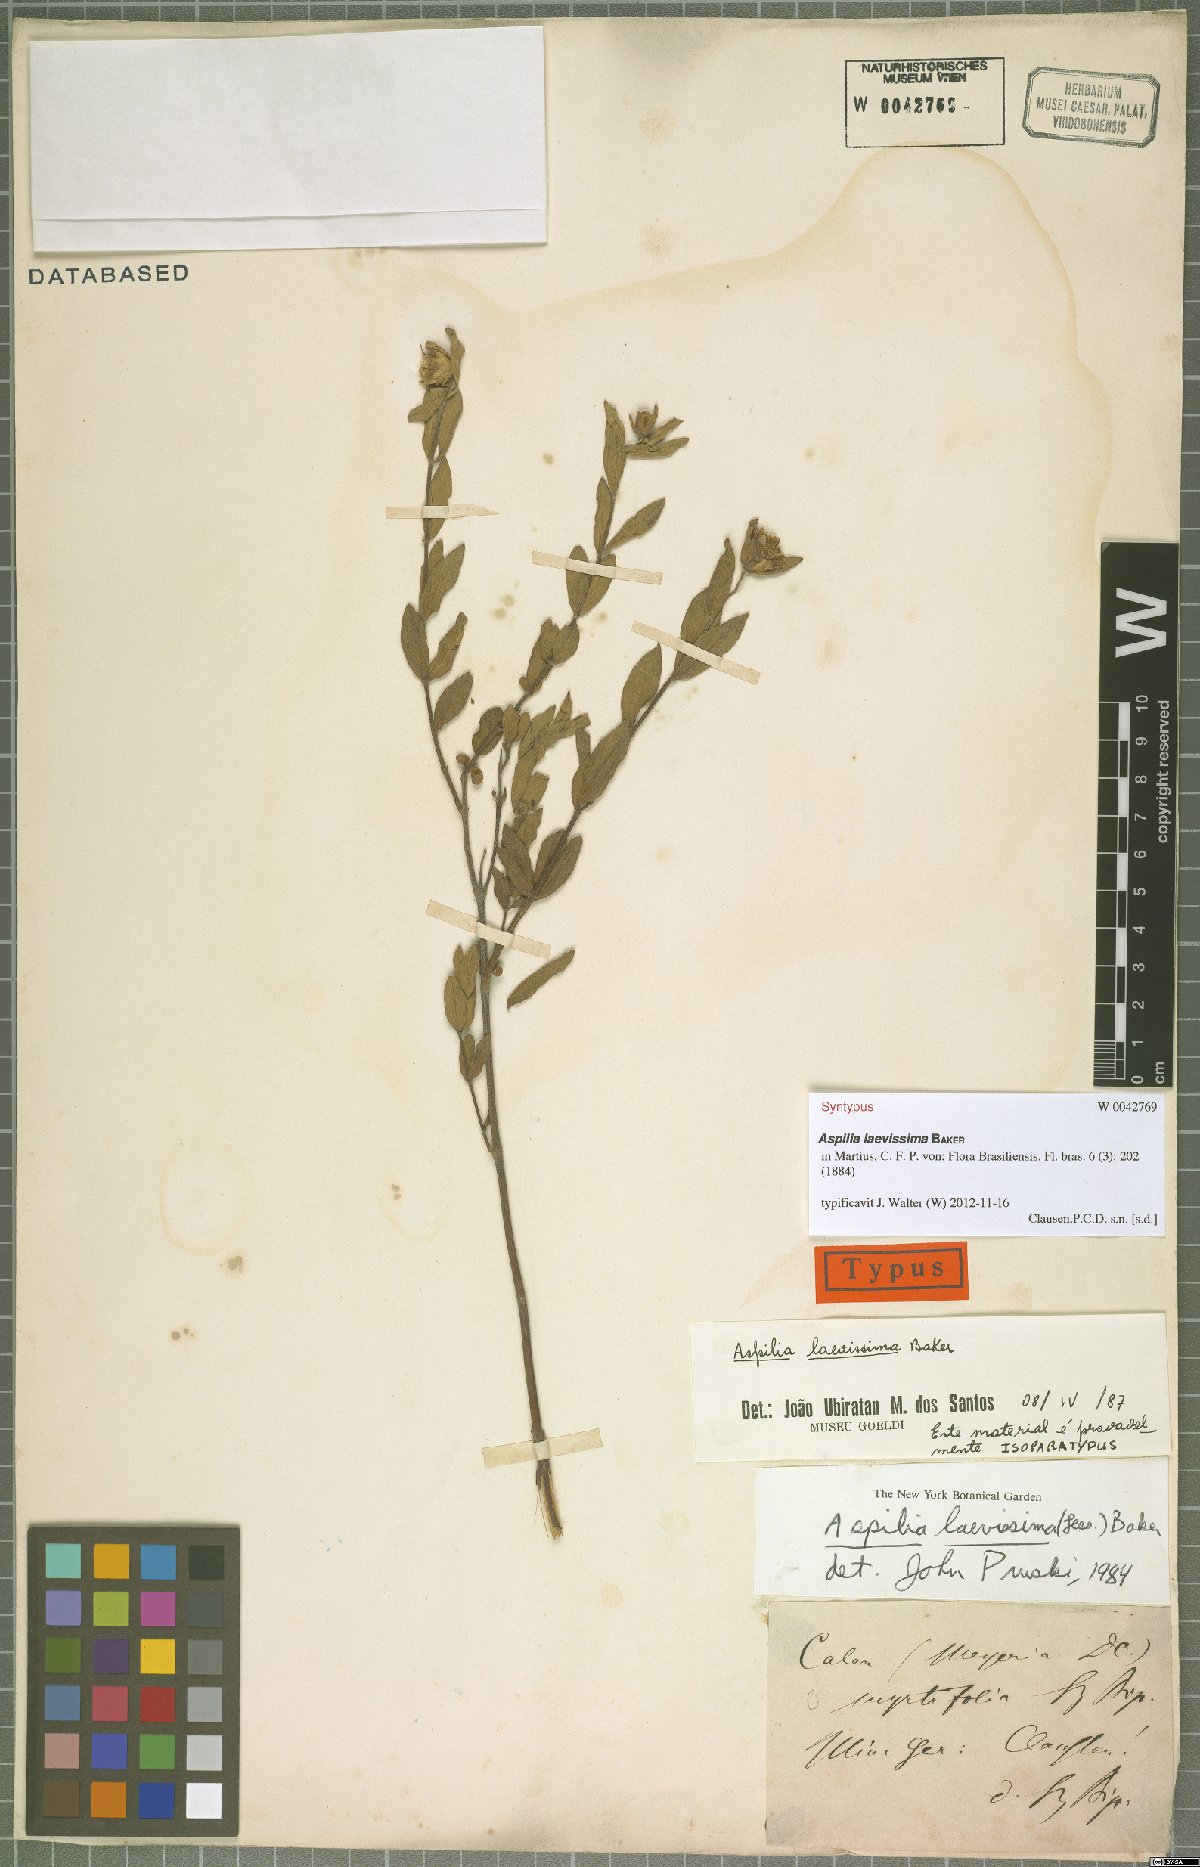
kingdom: Plantae
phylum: Tracheophyta
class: Magnoliopsida
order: Asterales
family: Asteraceae
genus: Wedelia
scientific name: Wedelia laevissima
